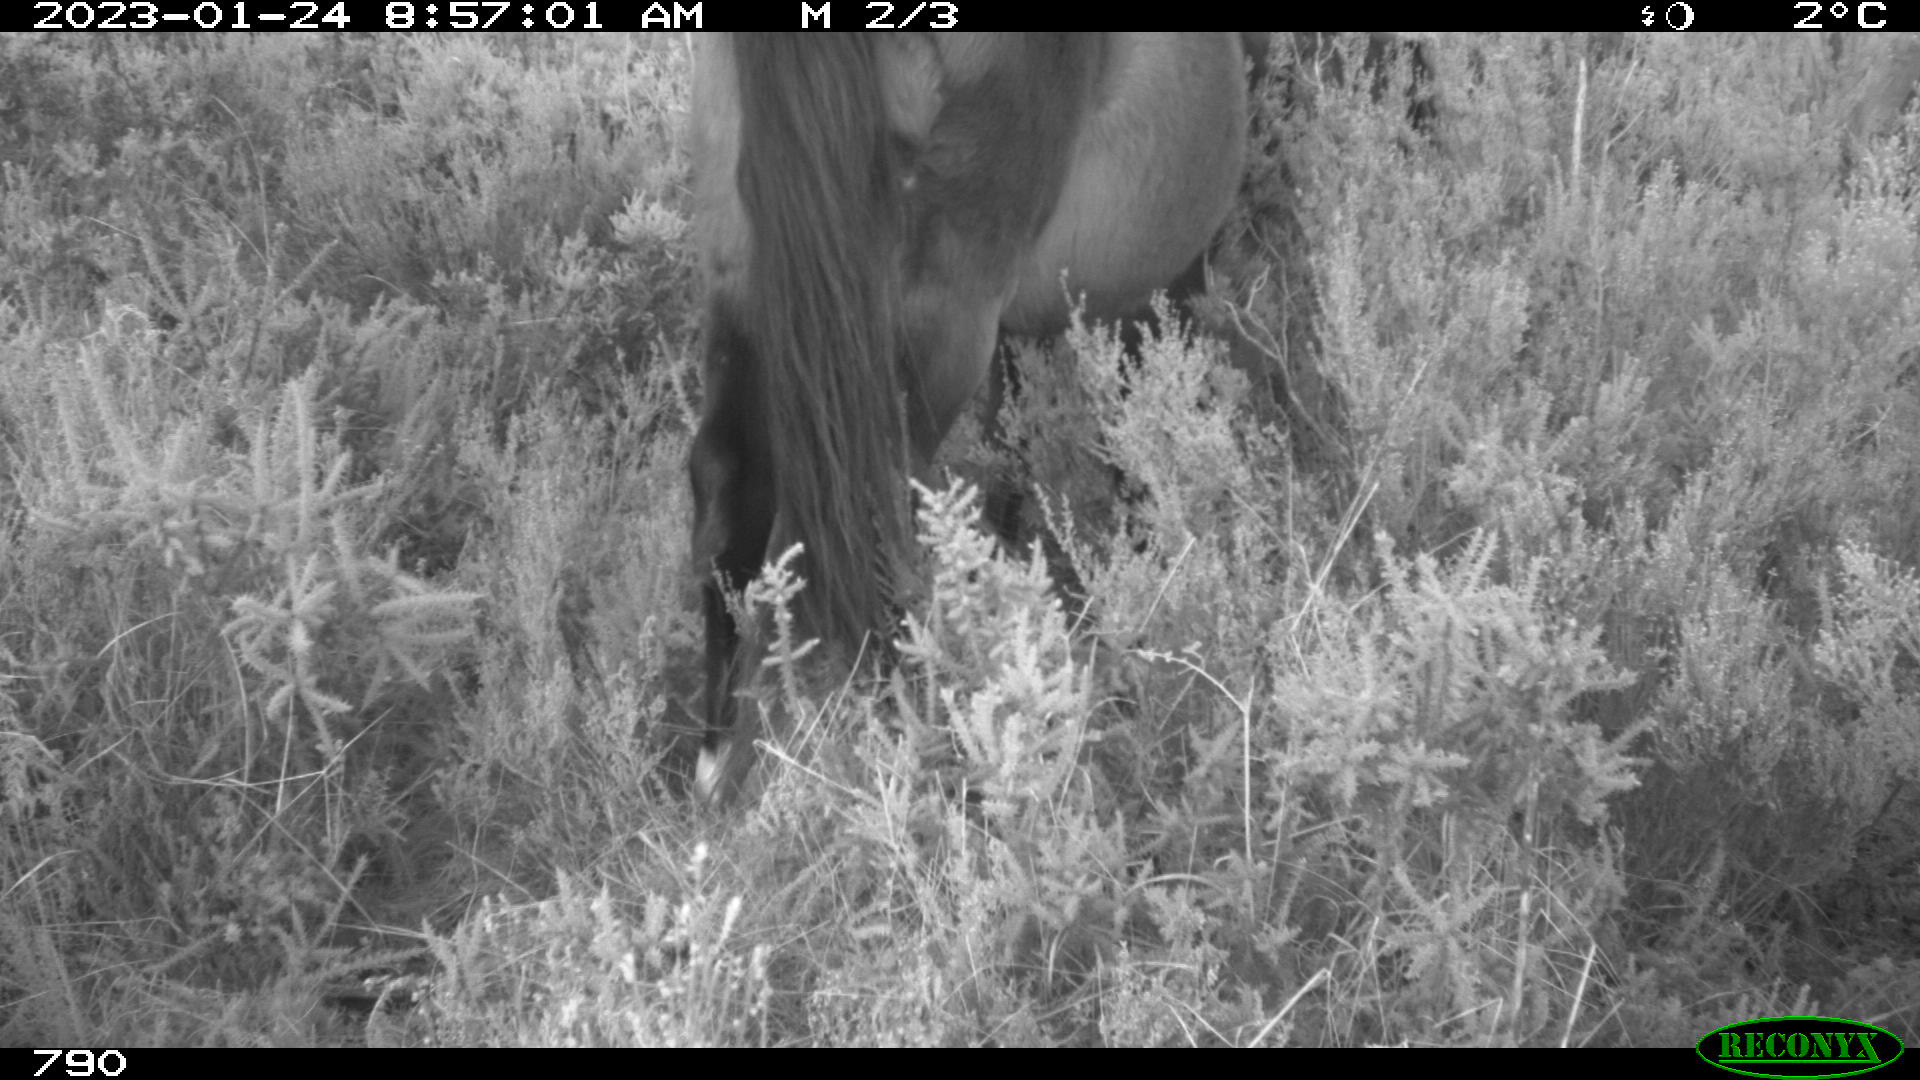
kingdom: Animalia
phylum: Chordata
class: Mammalia
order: Perissodactyla
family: Equidae
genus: Equus
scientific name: Equus caballus
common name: Horse
